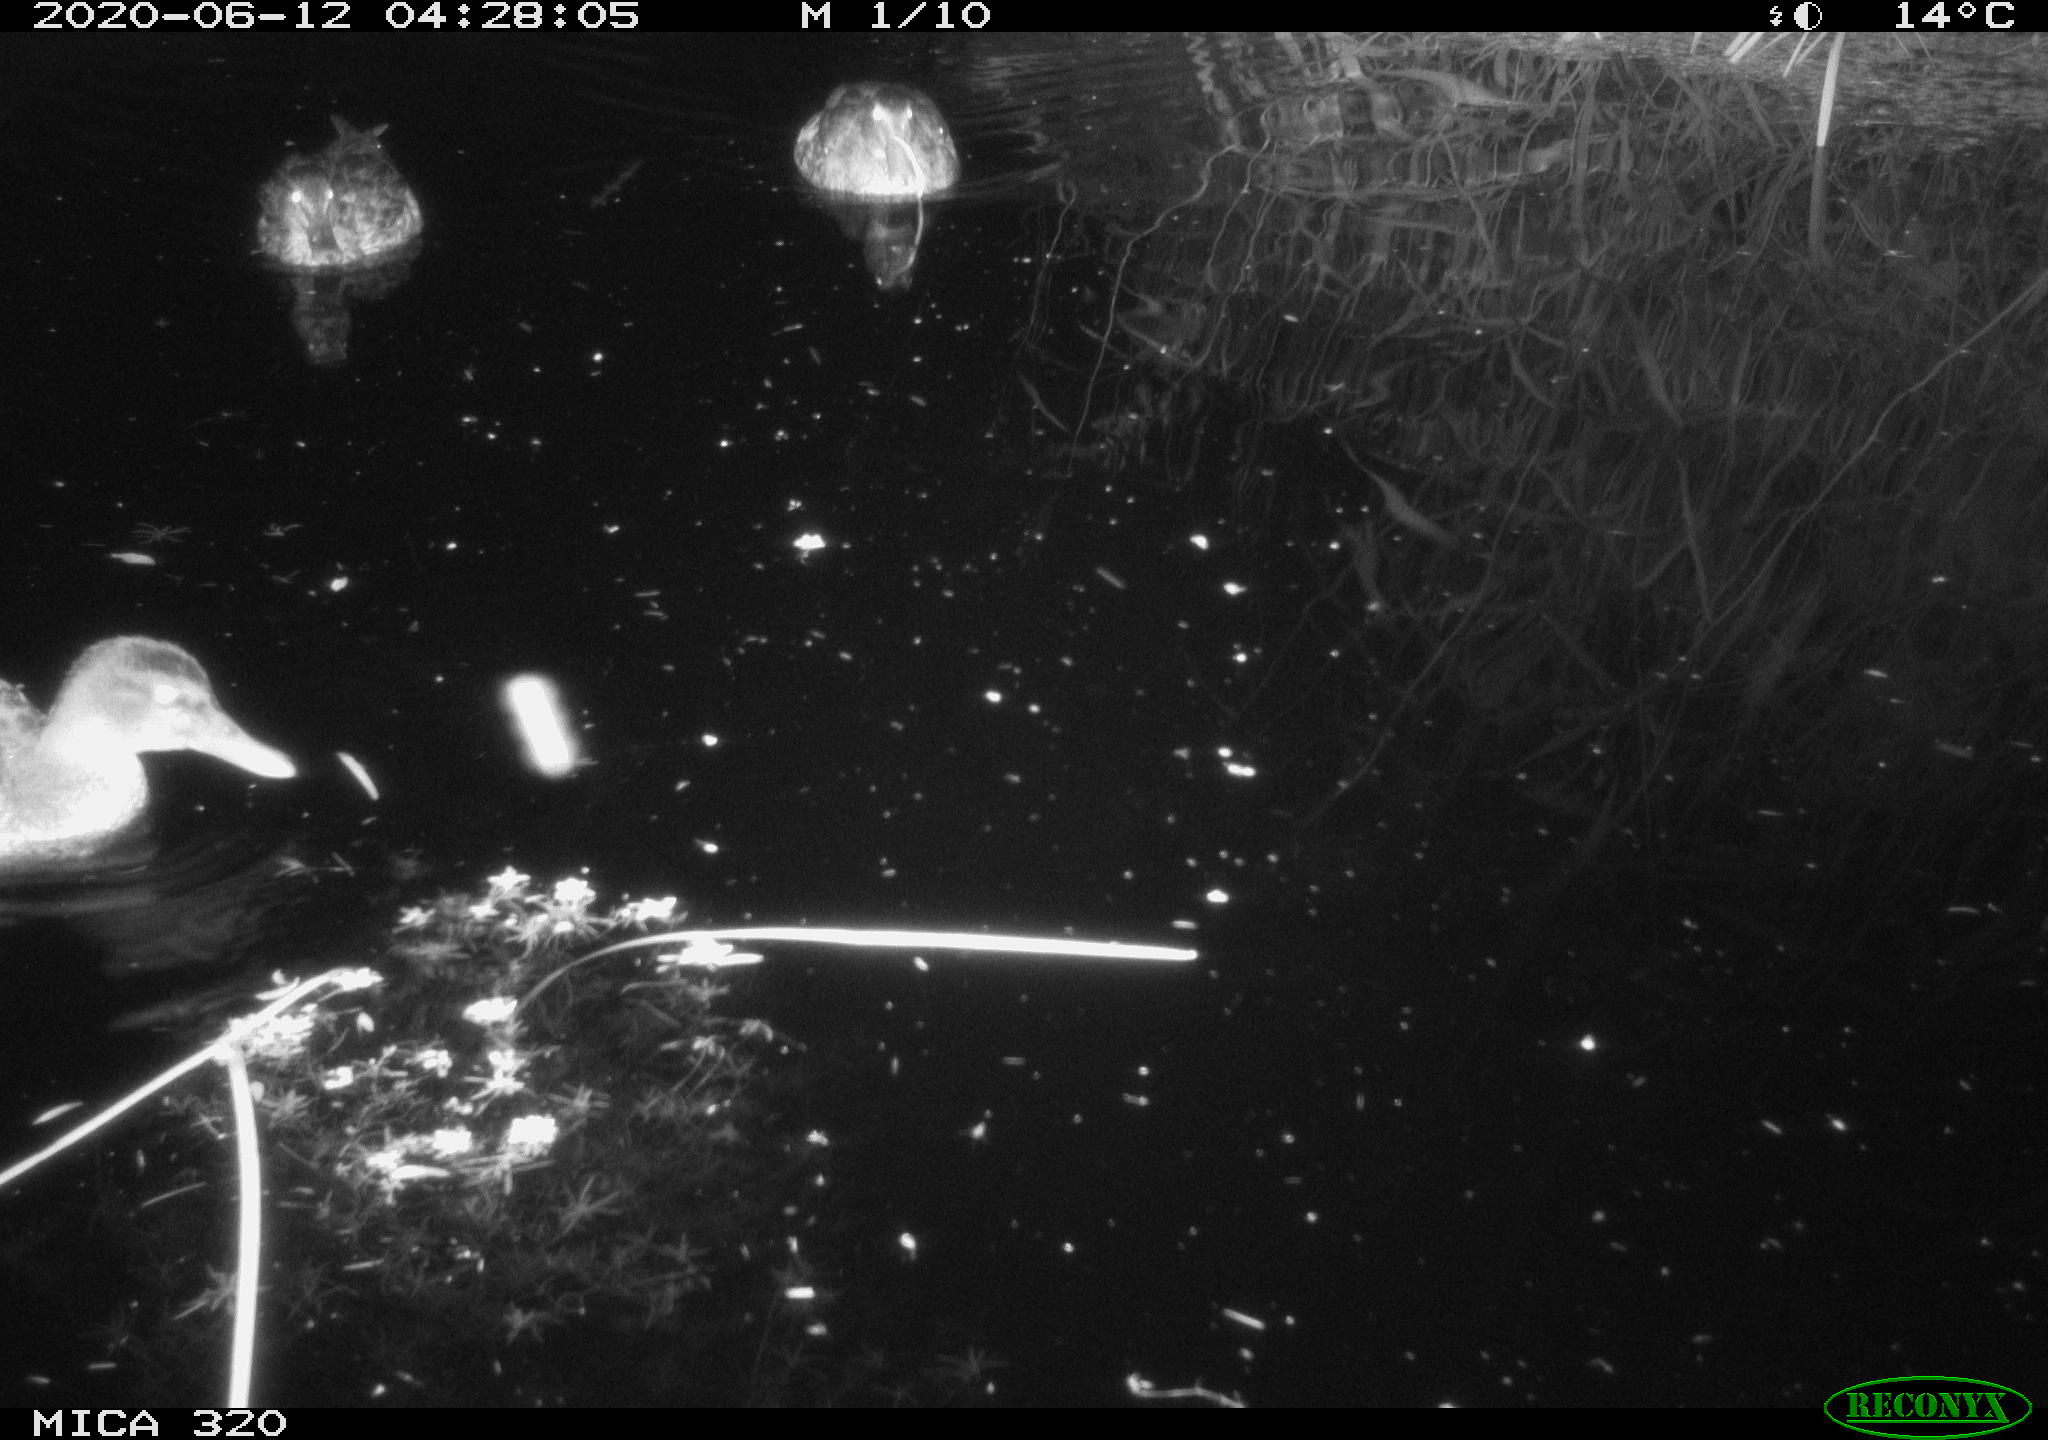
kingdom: Animalia
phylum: Chordata
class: Aves
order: Anseriformes
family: Anatidae
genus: Anas
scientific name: Anas platyrhynchos
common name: Mallard
